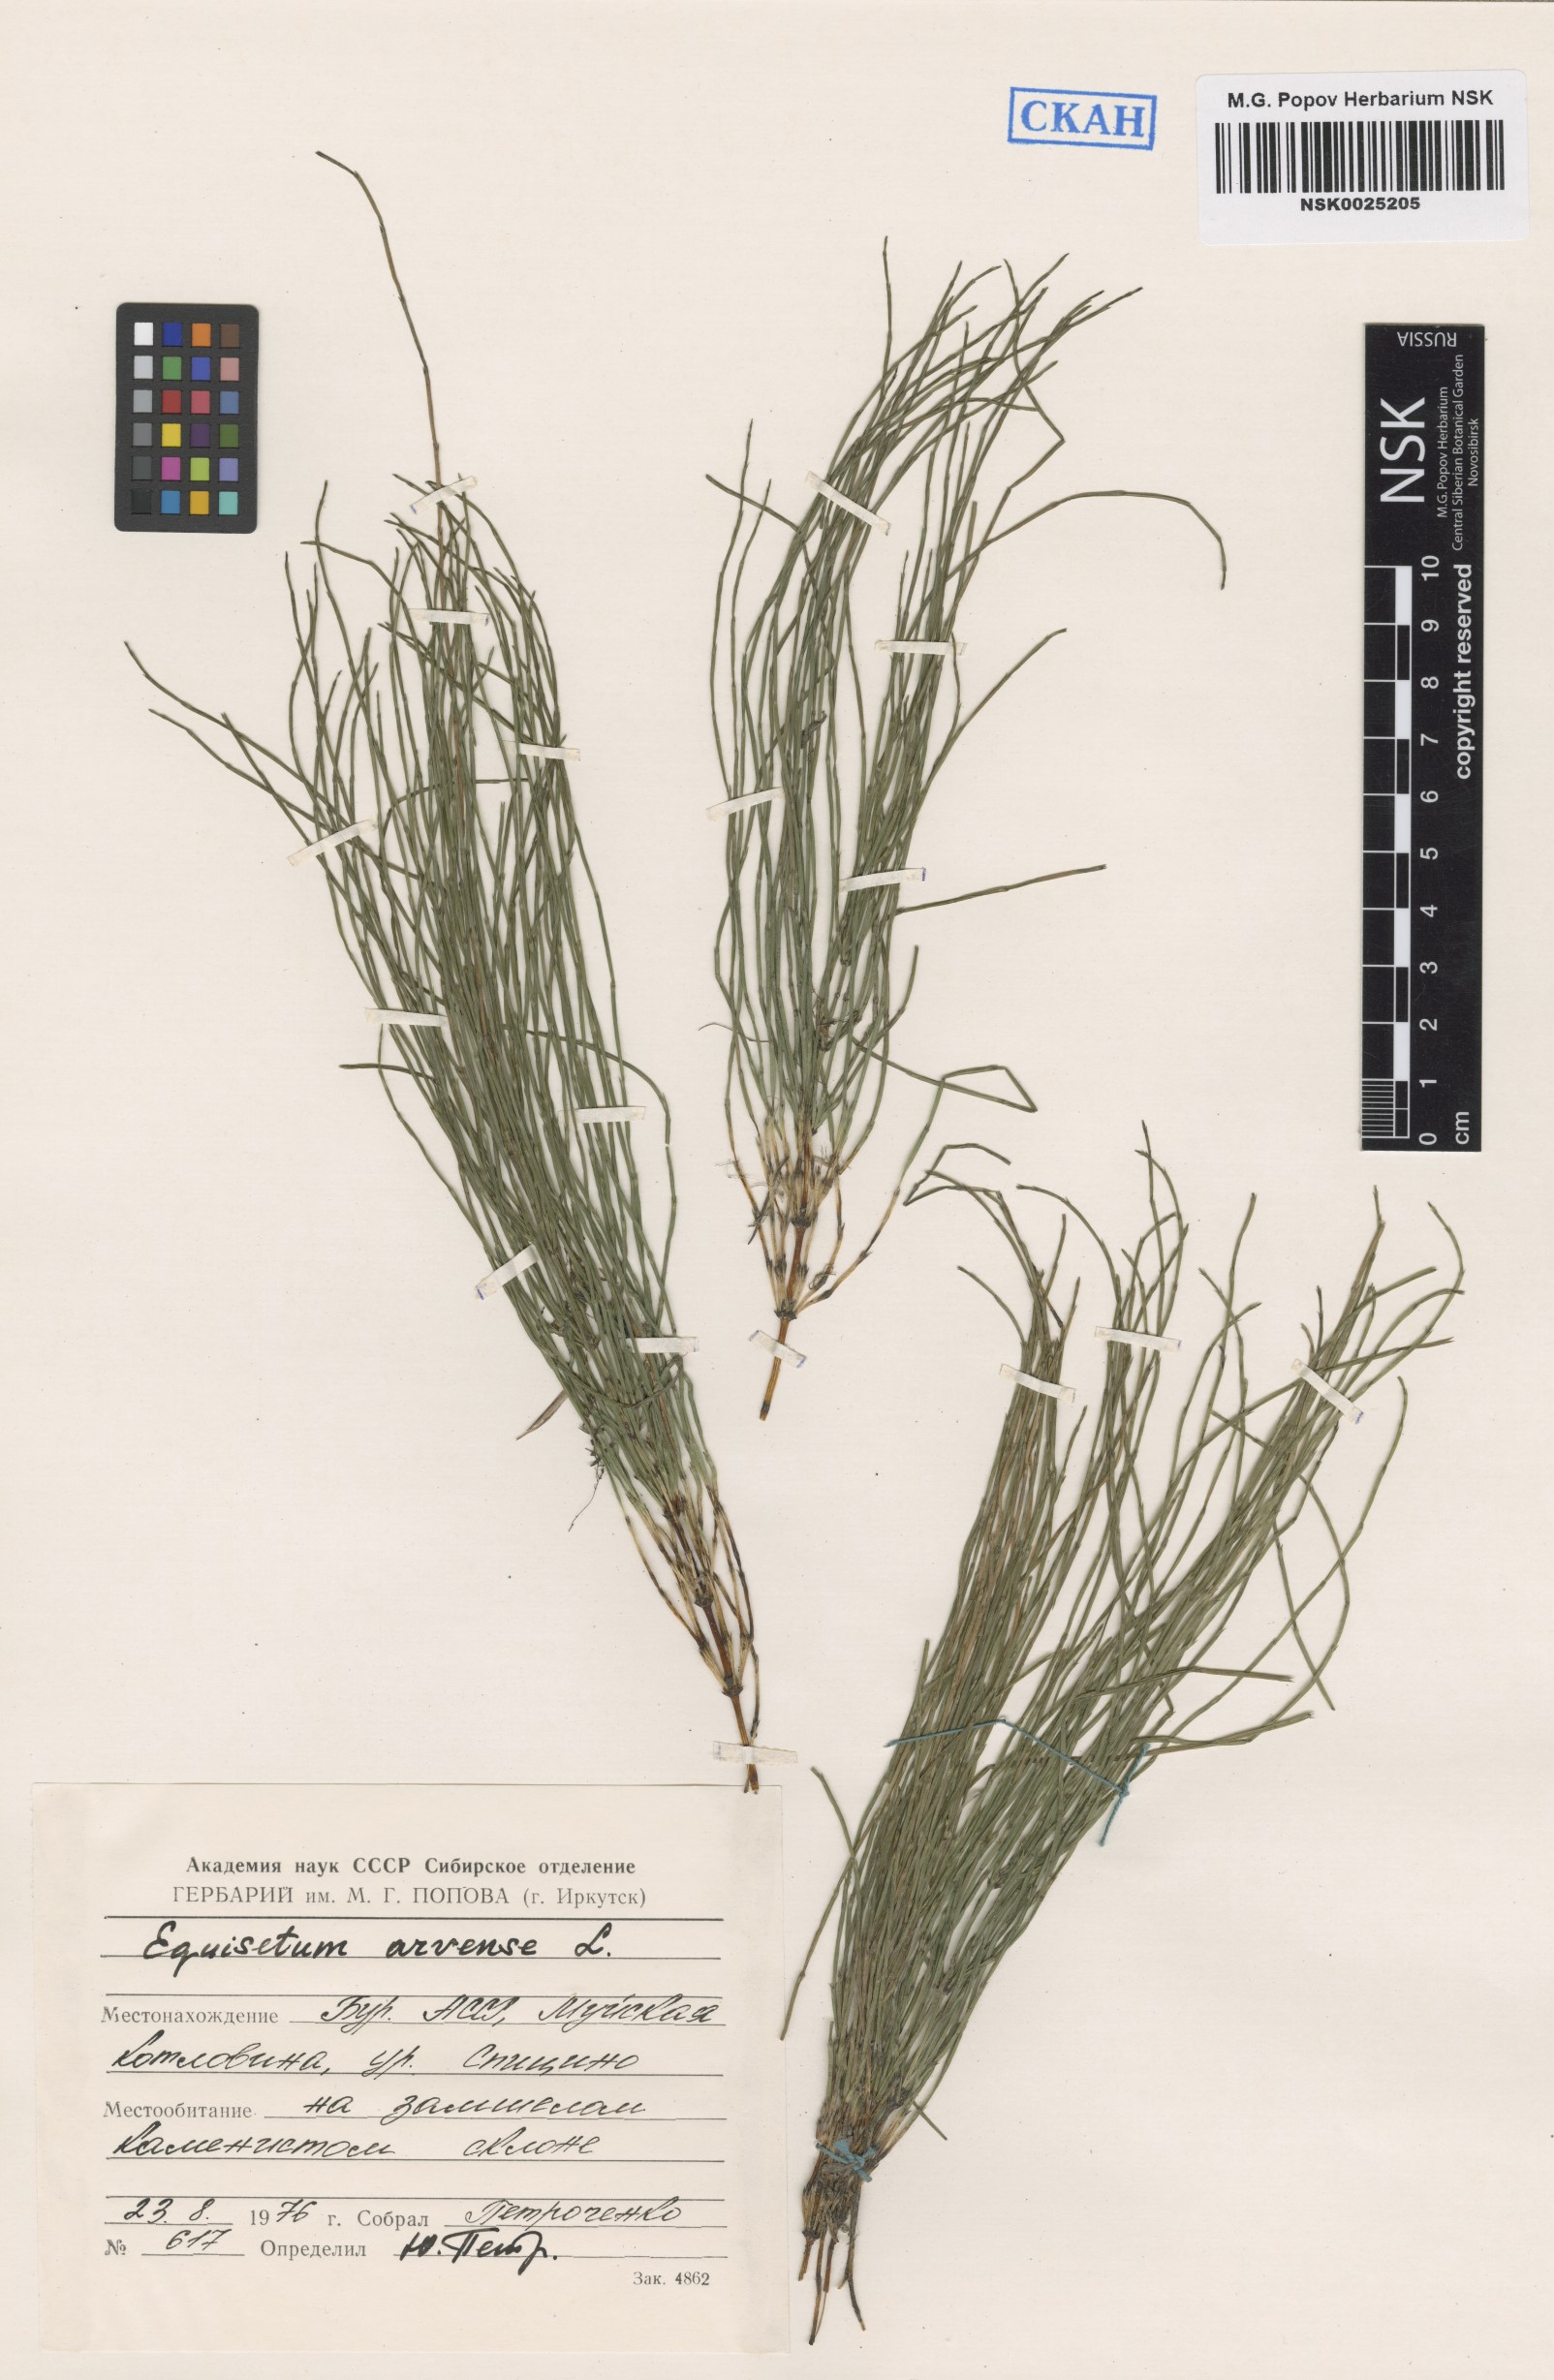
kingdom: Plantae
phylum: Tracheophyta
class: Polypodiopsida
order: Equisetales
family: Equisetaceae
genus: Equisetum
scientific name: Equisetum arvense
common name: Field horsetail
